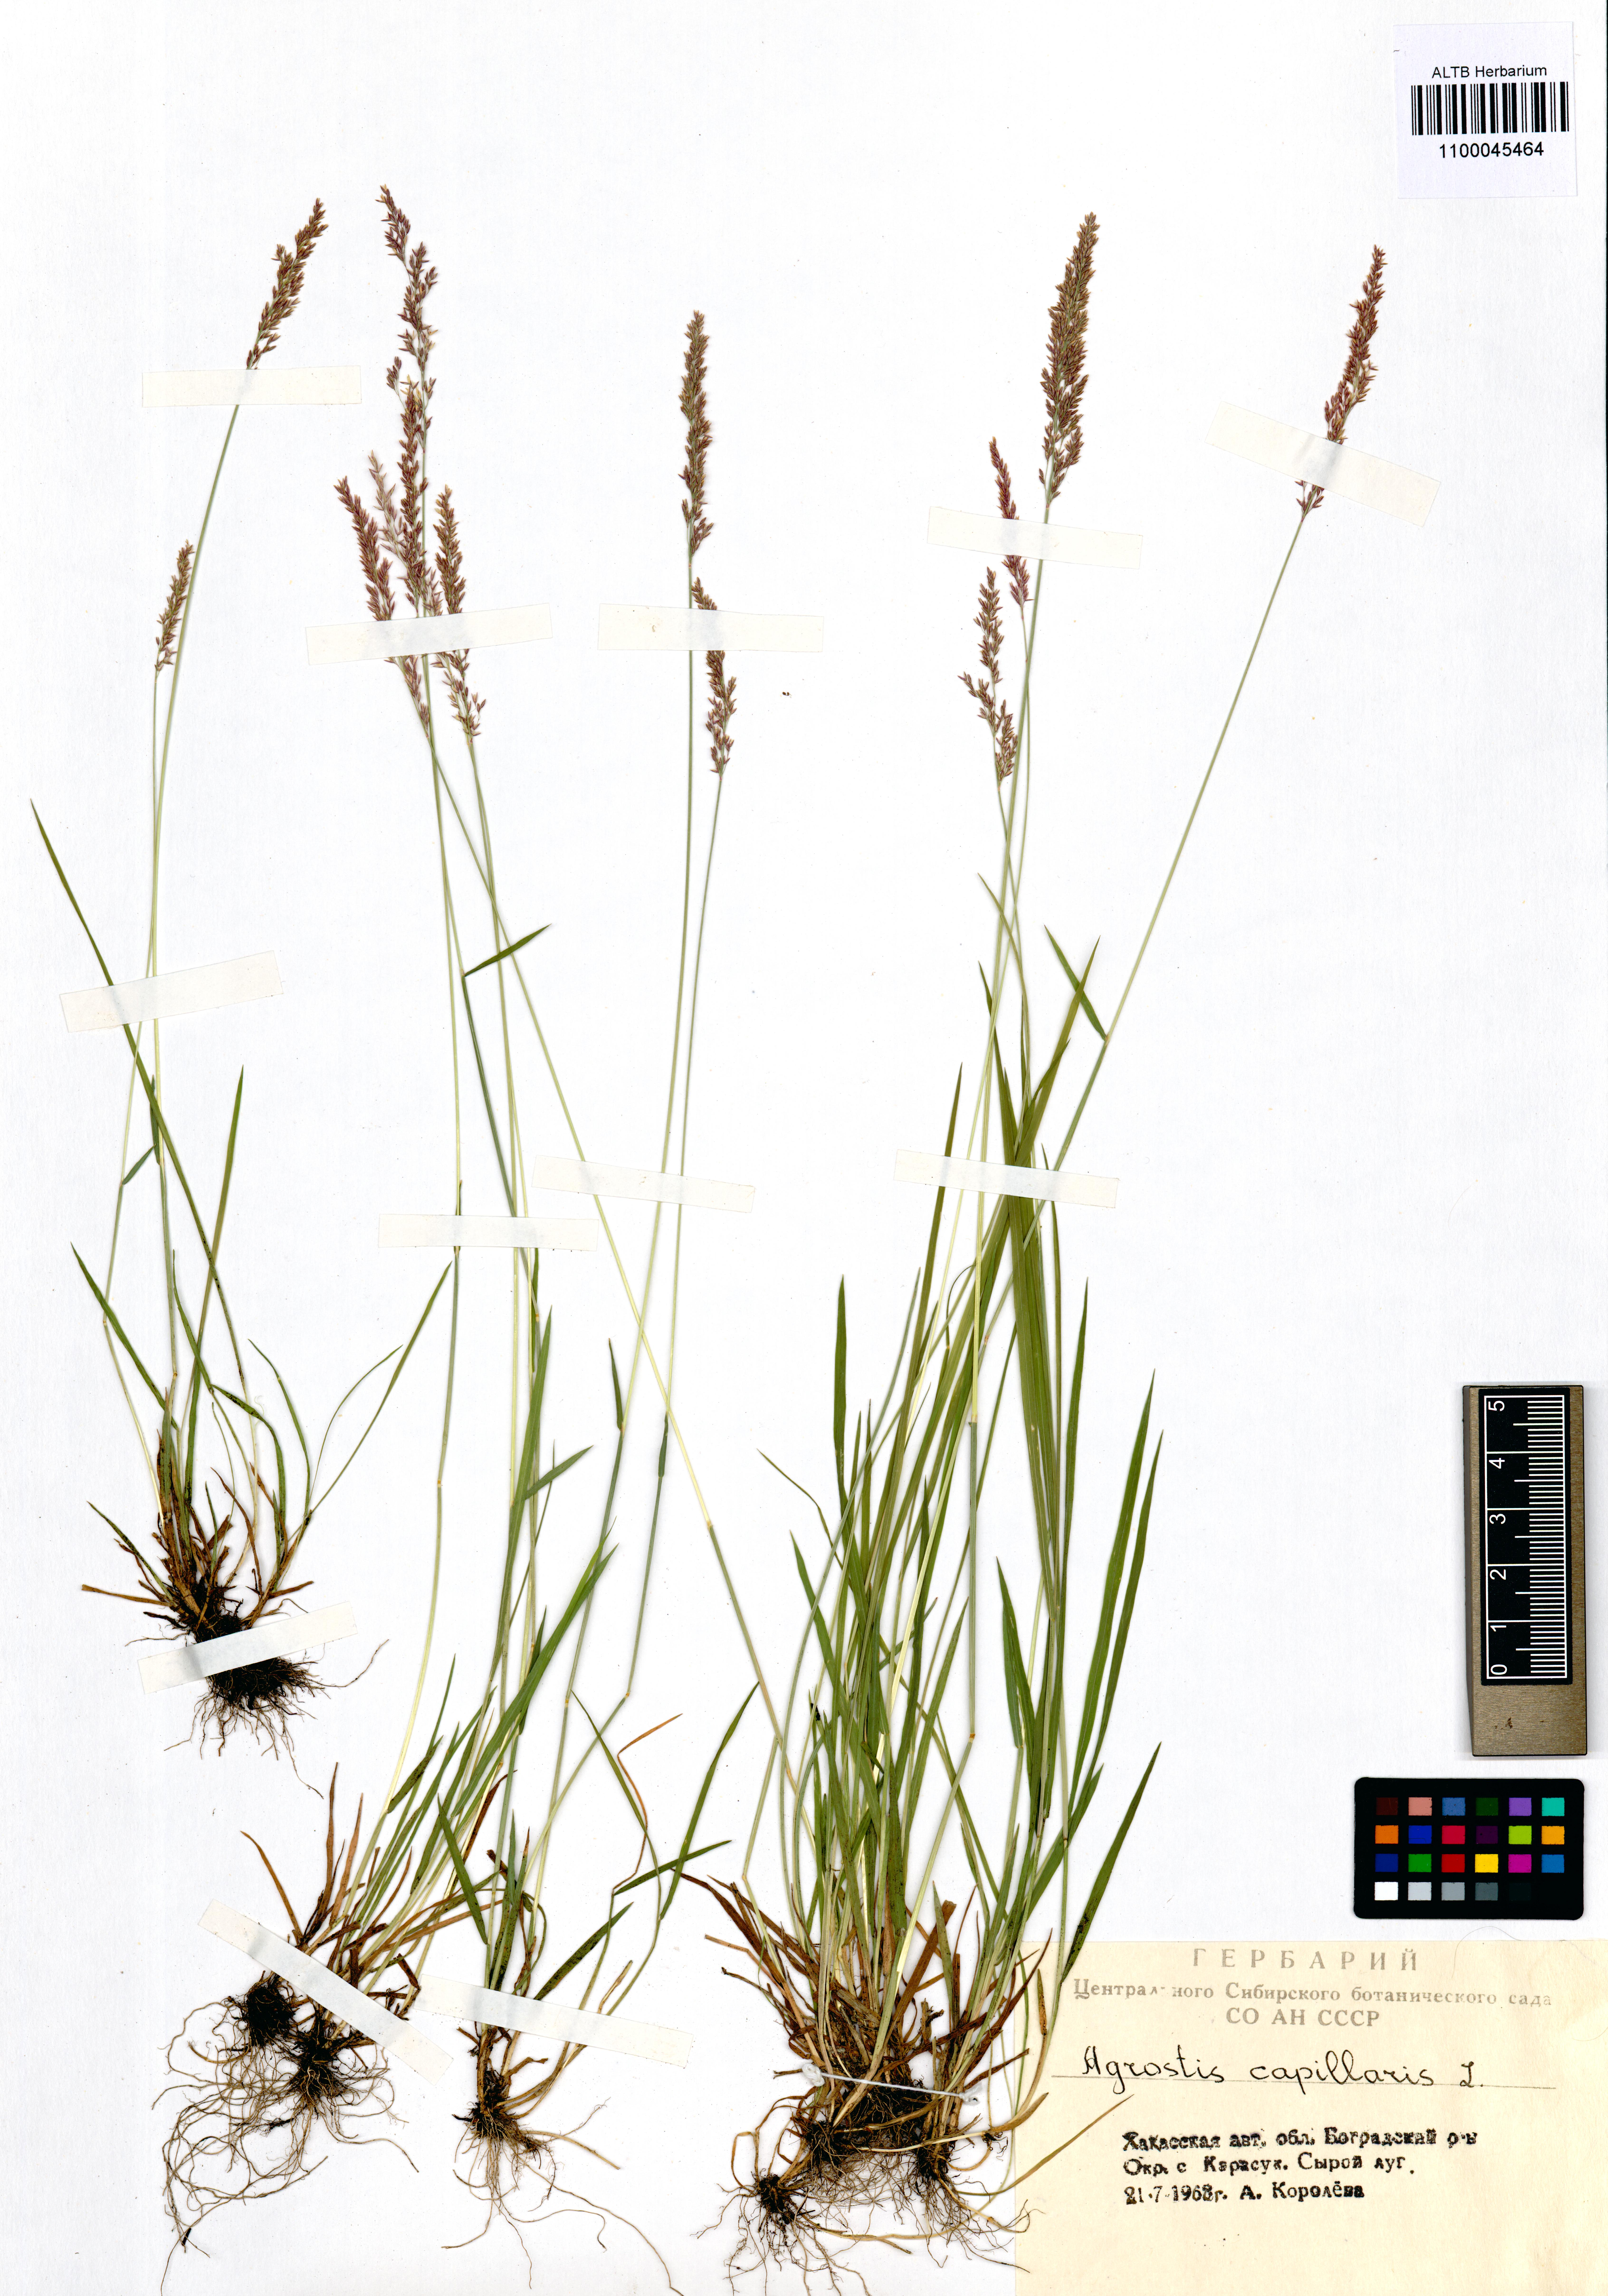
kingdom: Plantae
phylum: Tracheophyta
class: Liliopsida
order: Poales
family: Poaceae
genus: Agrostis
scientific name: Agrostis capillaris
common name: Colonial bentgrass
